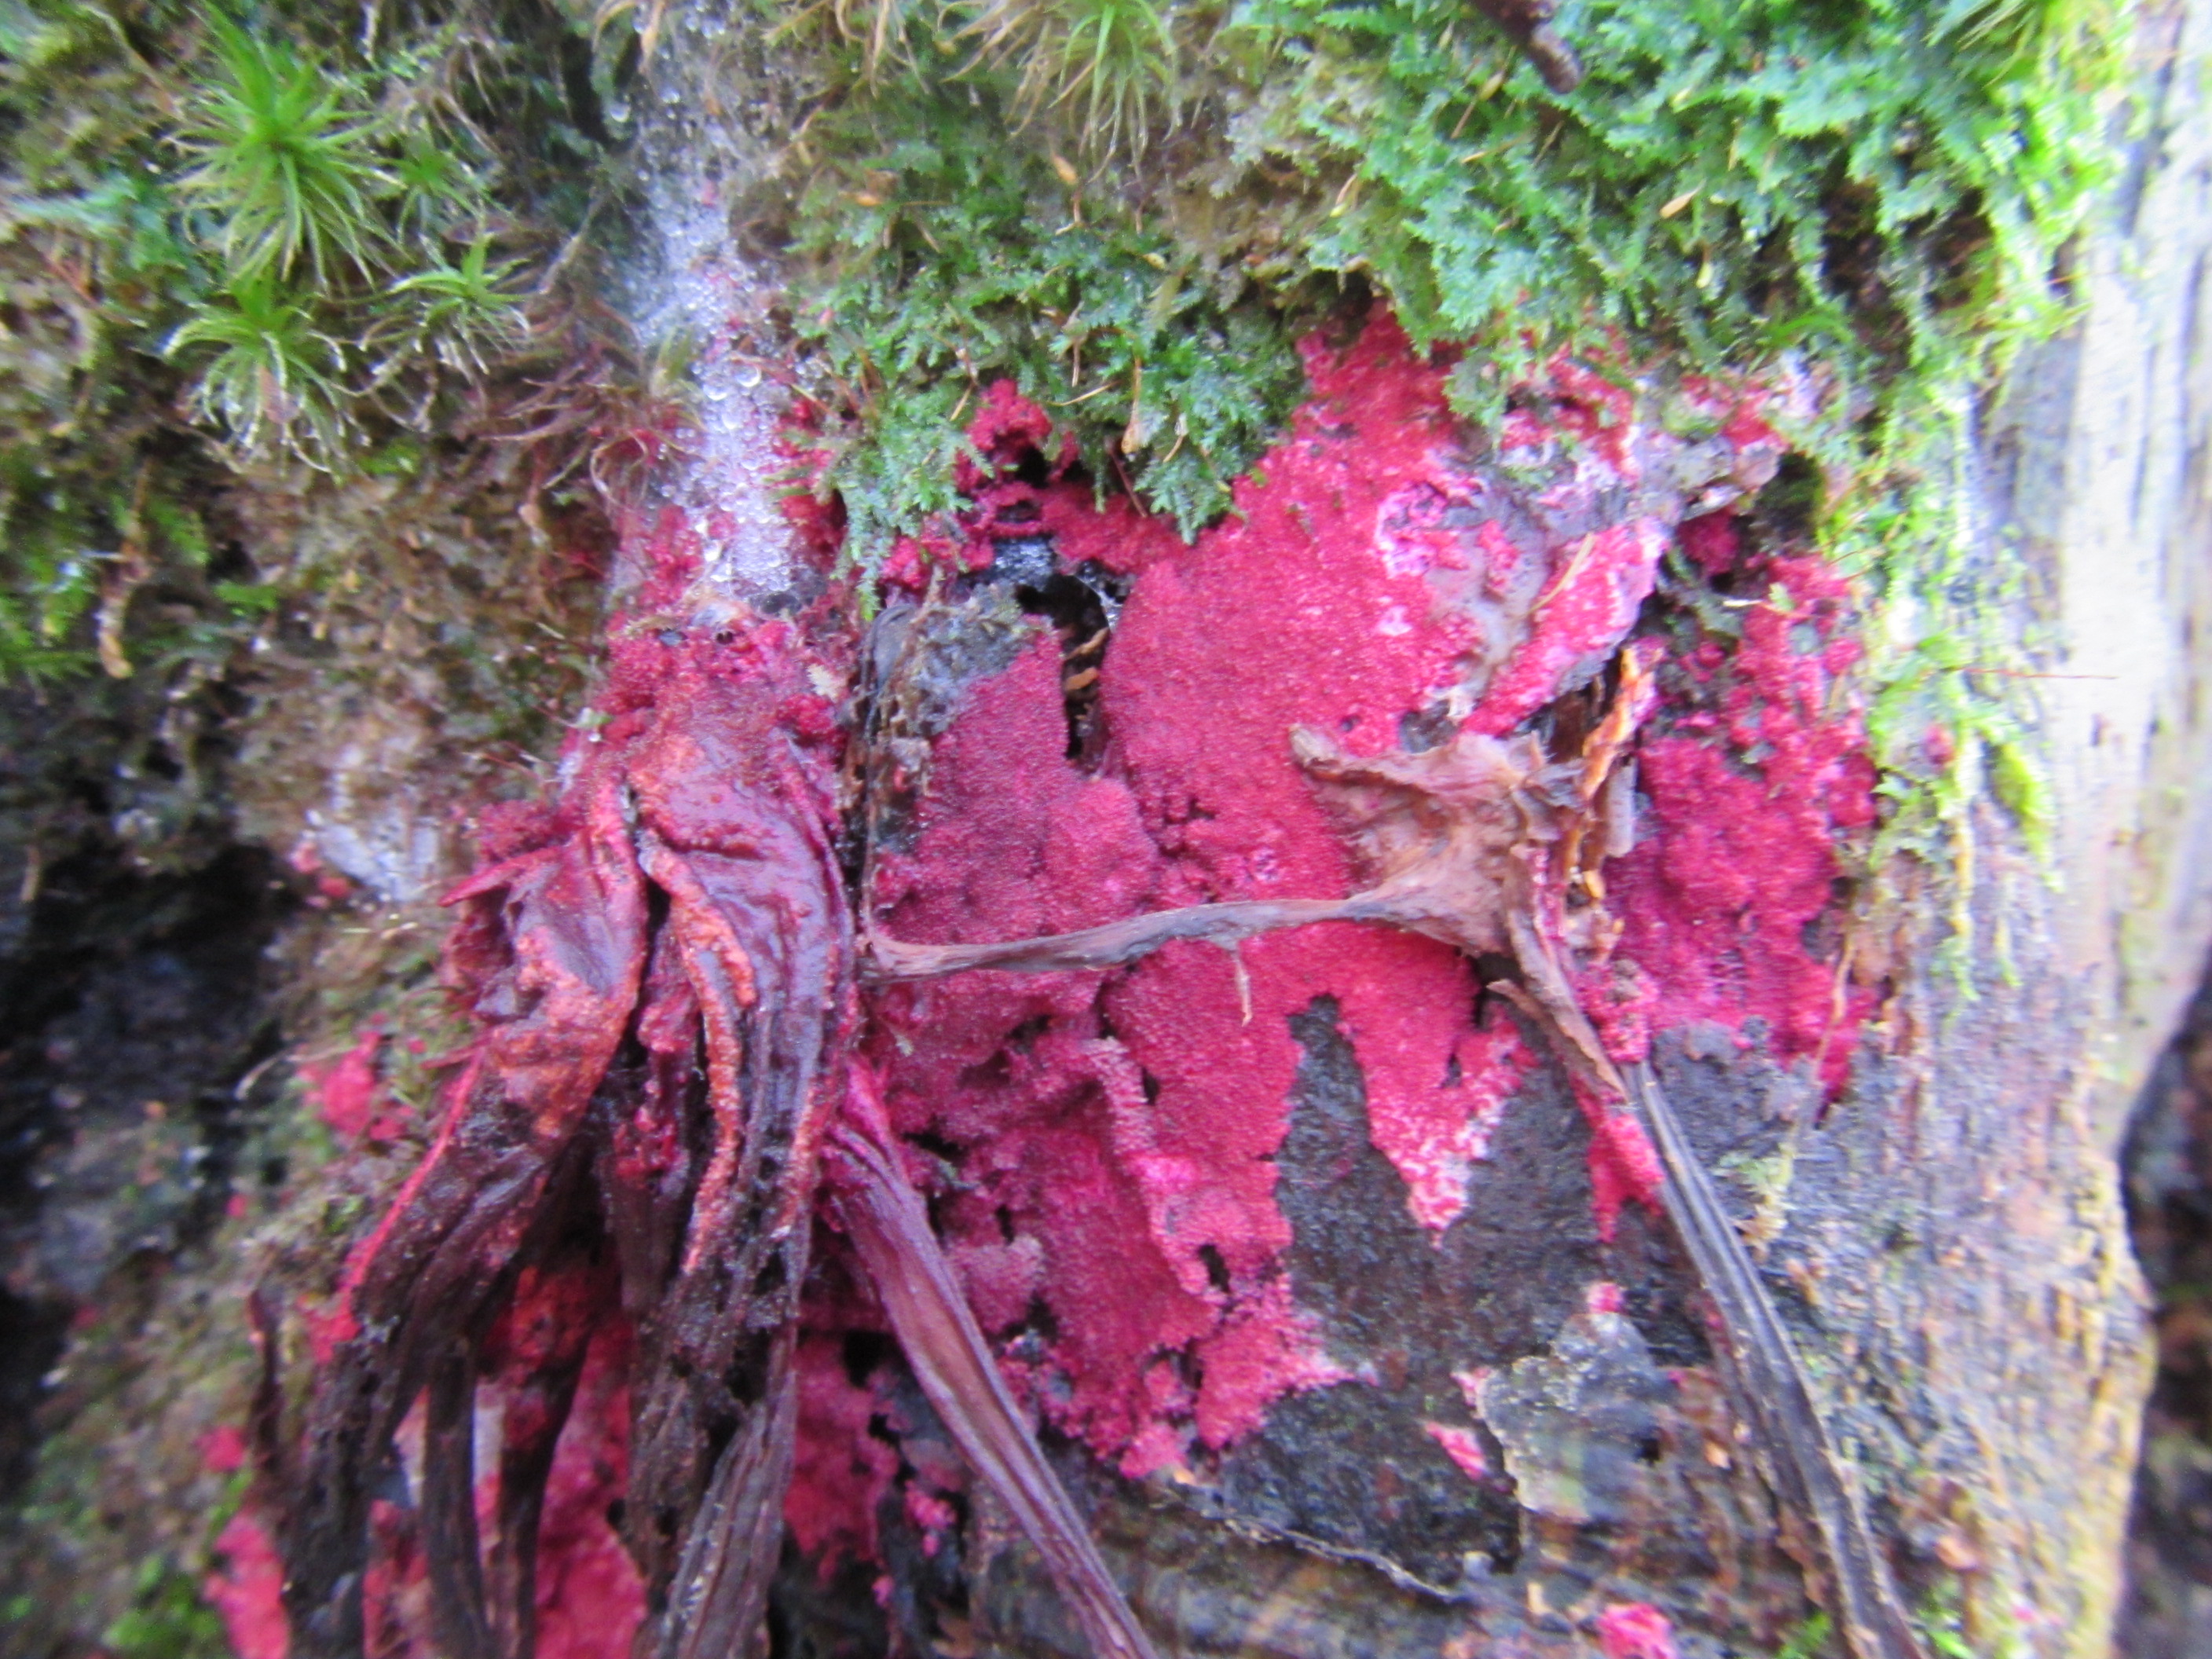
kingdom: Fungi
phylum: Ascomycota
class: Sordariomycetes
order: Hypocreales
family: Hypocreaceae
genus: Hypomyces
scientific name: Hypomyces rosellus
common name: Pink polypore mould
